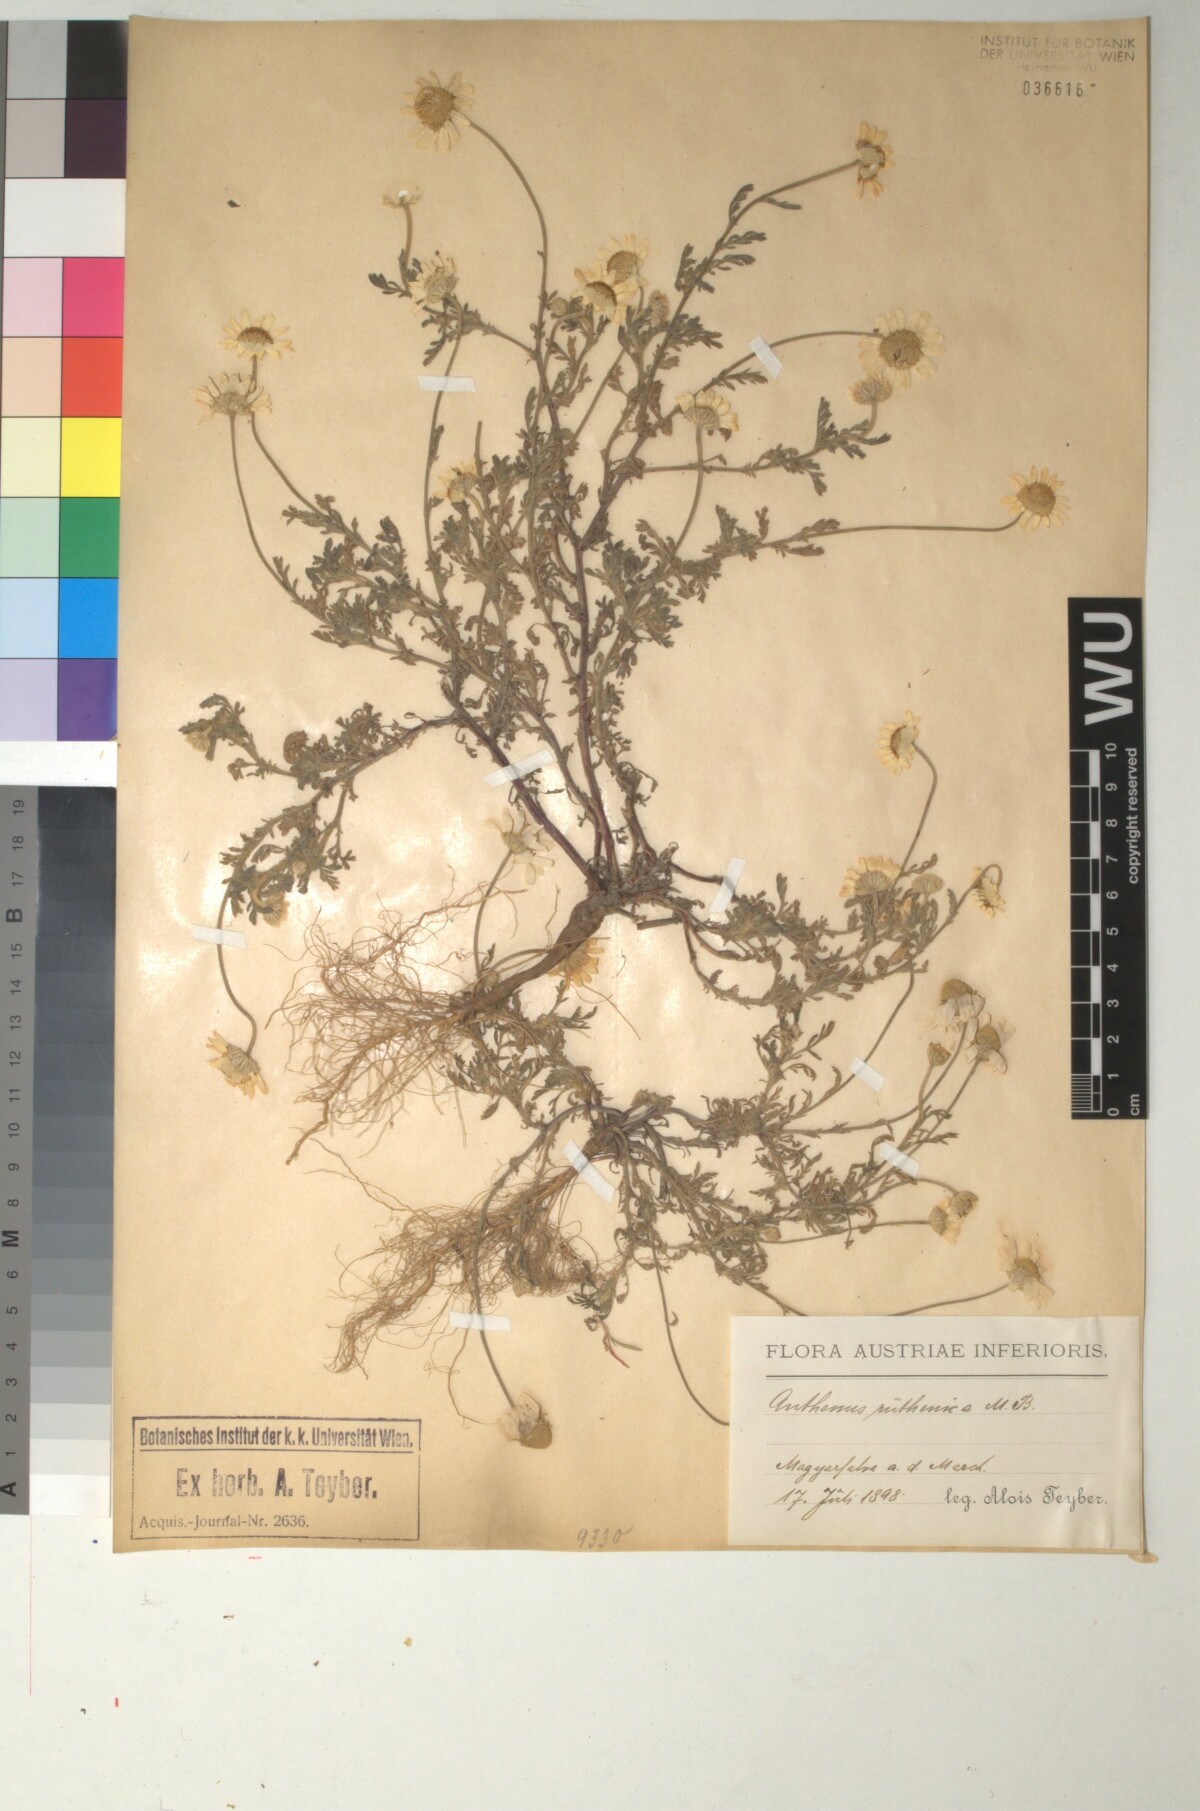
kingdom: Plantae
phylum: Tracheophyta
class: Magnoliopsida
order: Asterales
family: Asteraceae
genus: Anthemis
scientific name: Anthemis ruthenica
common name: Eastern chamomile
